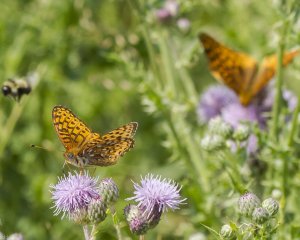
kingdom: Animalia
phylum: Arthropoda
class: Insecta
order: Lepidoptera
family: Nymphalidae
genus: Speyeria
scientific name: Speyeria atlantis
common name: Atlantis Fritillary
